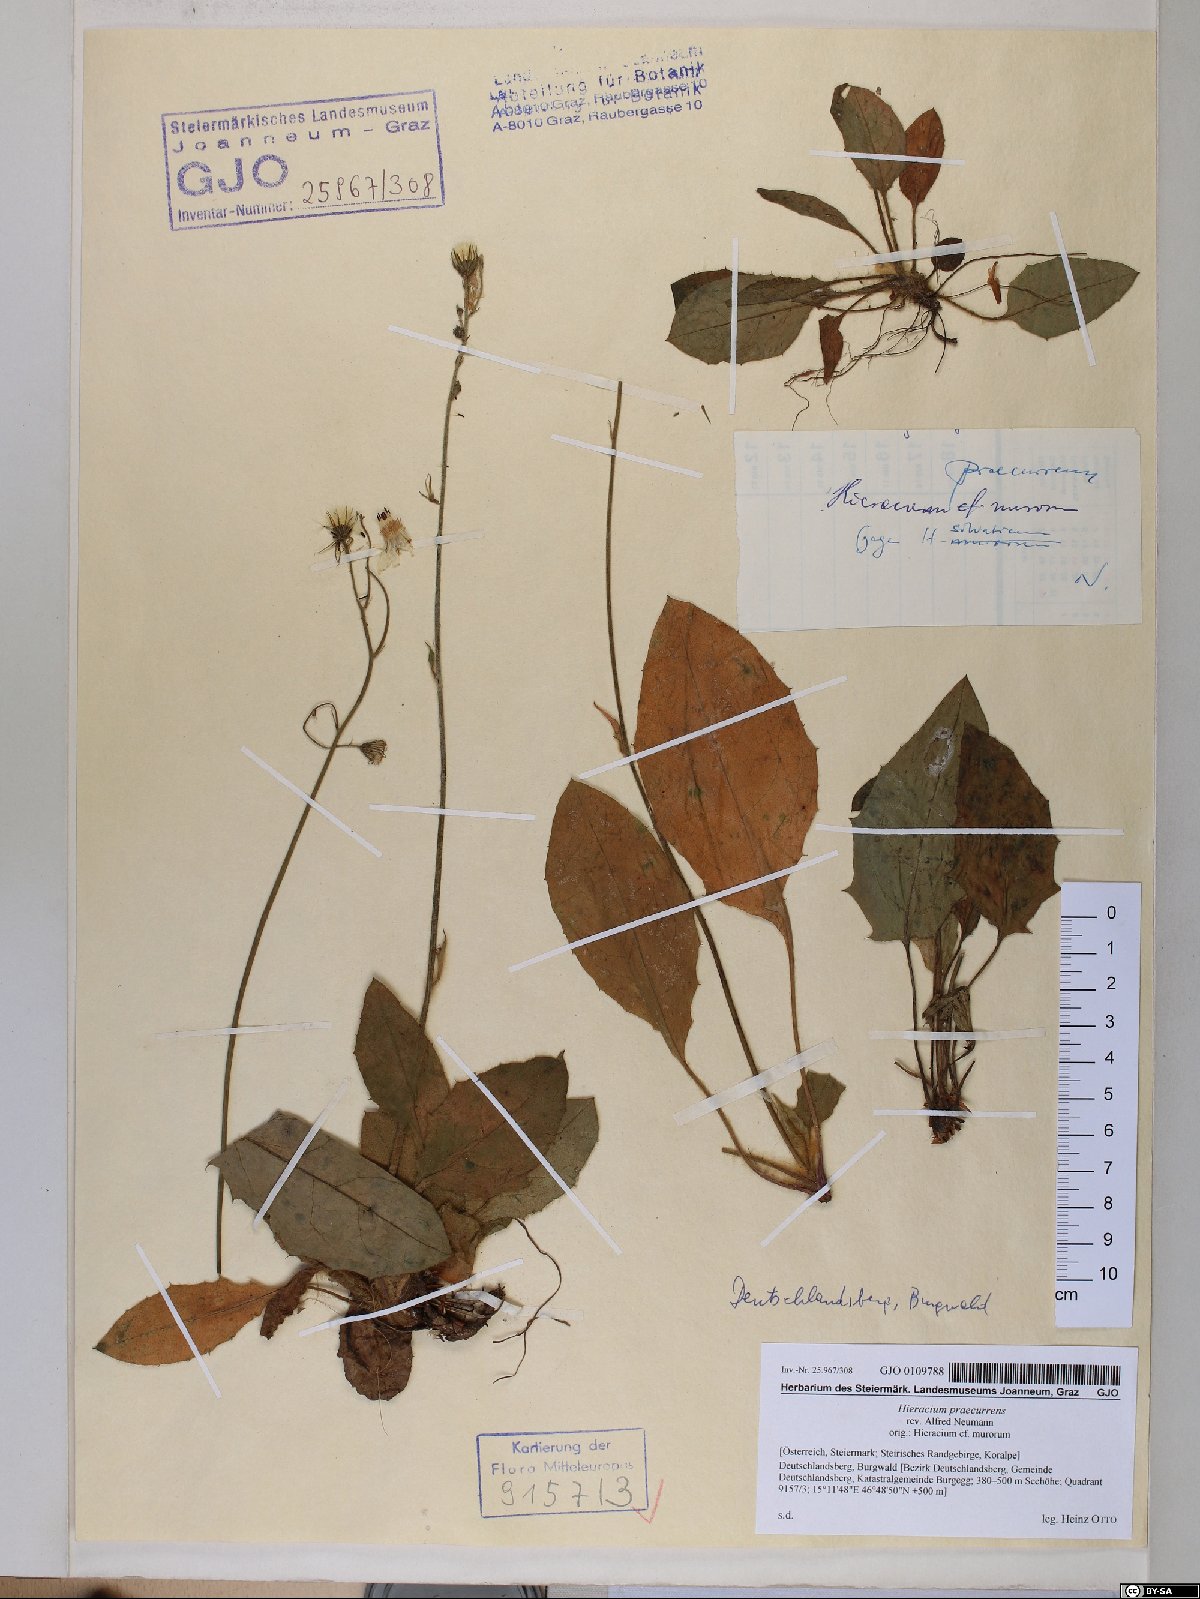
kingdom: Plantae
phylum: Tracheophyta
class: Magnoliopsida
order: Asterales
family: Asteraceae
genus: Hieracium
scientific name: Hieracium rotundatum
